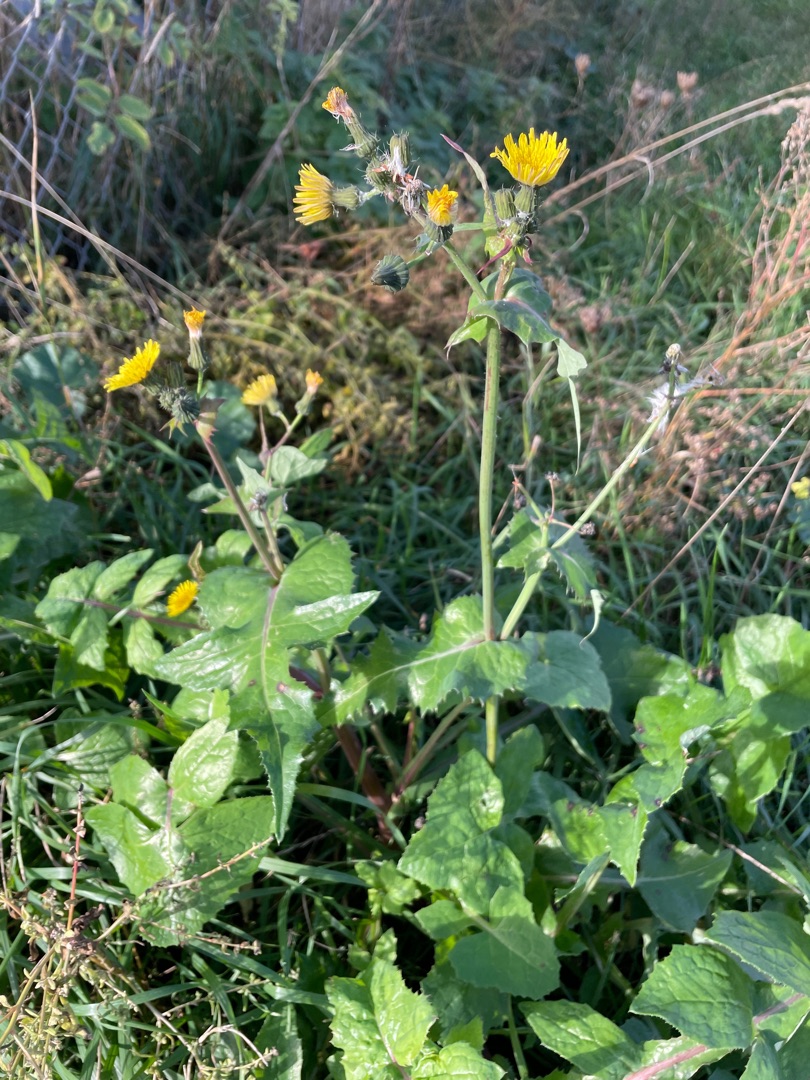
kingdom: Plantae
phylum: Tracheophyta
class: Magnoliopsida
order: Asterales
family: Asteraceae
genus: Sonchus
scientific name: Sonchus oleraceus
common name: Almindelig svinemælk
